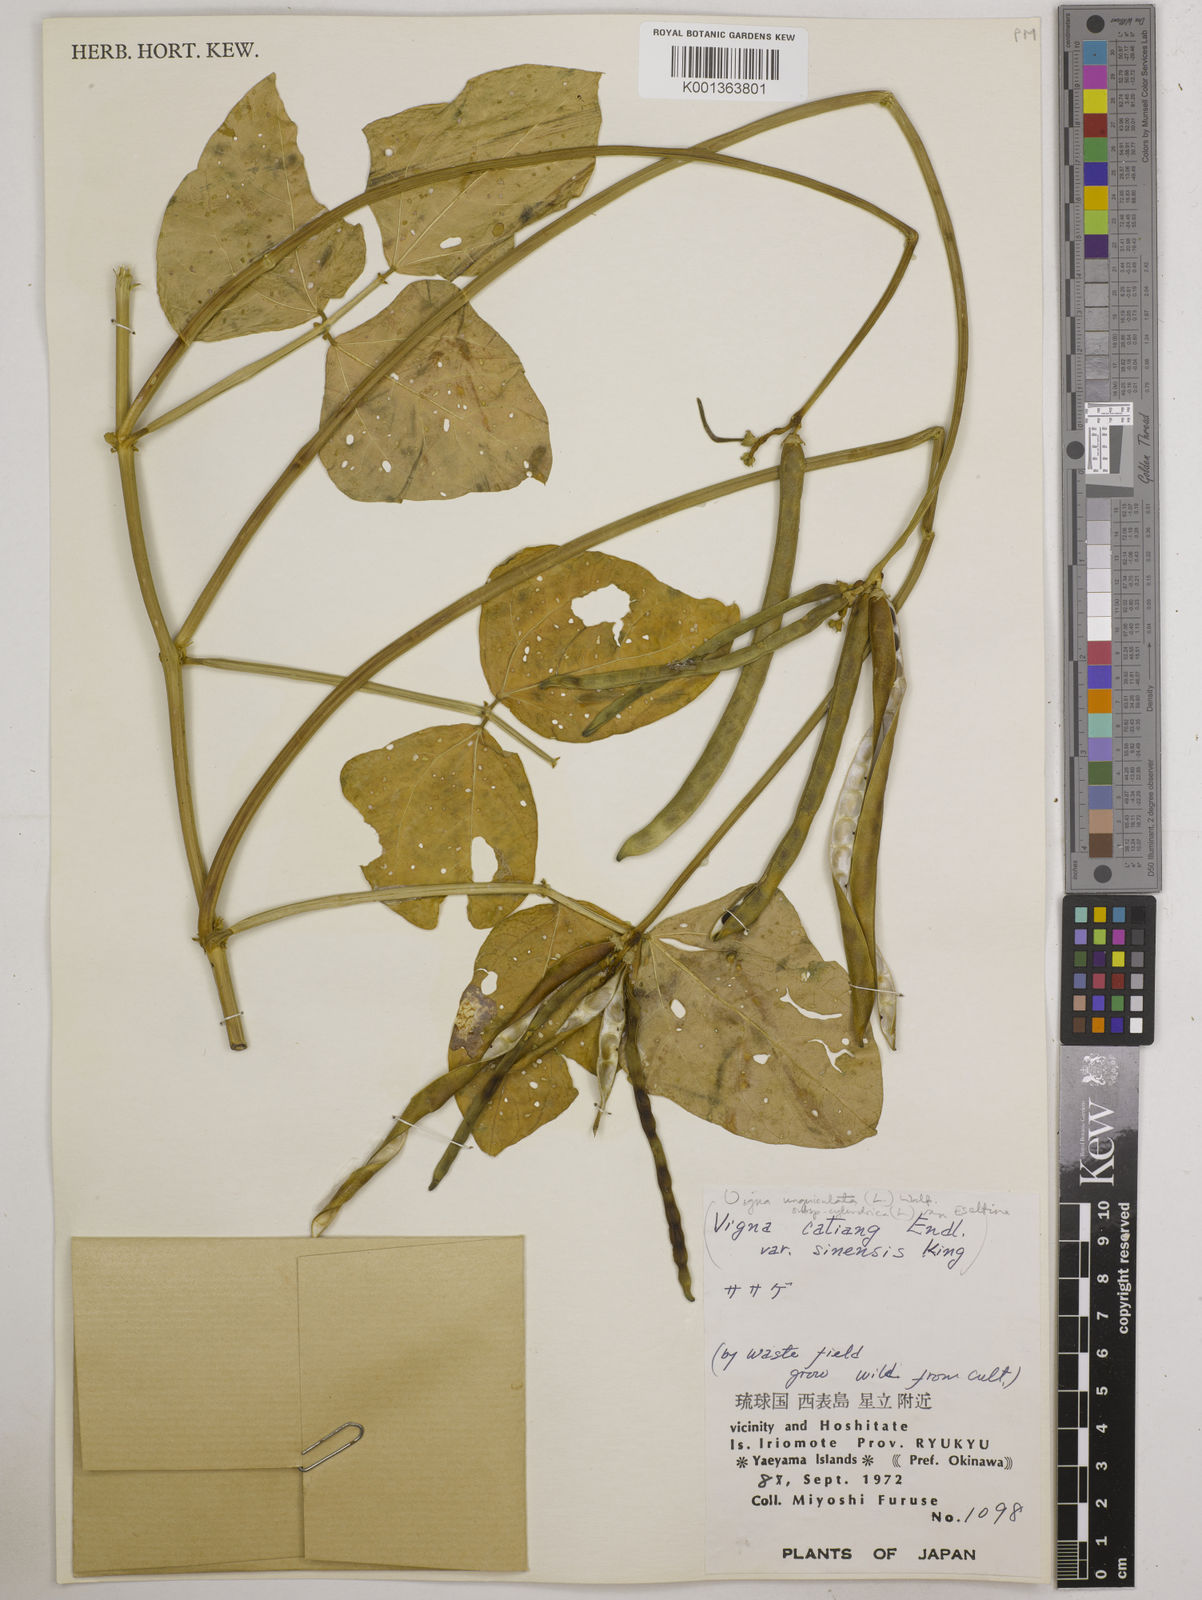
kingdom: Plantae
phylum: Tracheophyta
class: Magnoliopsida
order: Fabales
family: Fabaceae
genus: Vigna
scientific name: Vigna
